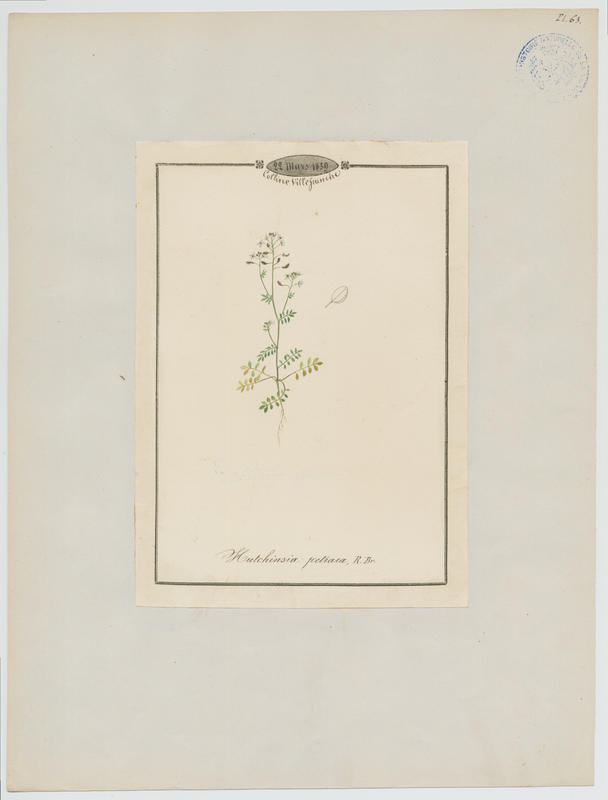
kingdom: Plantae
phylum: Tracheophyta
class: Magnoliopsida
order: Brassicales
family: Brassicaceae
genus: Hornungia
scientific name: Hornungia petraea
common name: Hutchinsia
